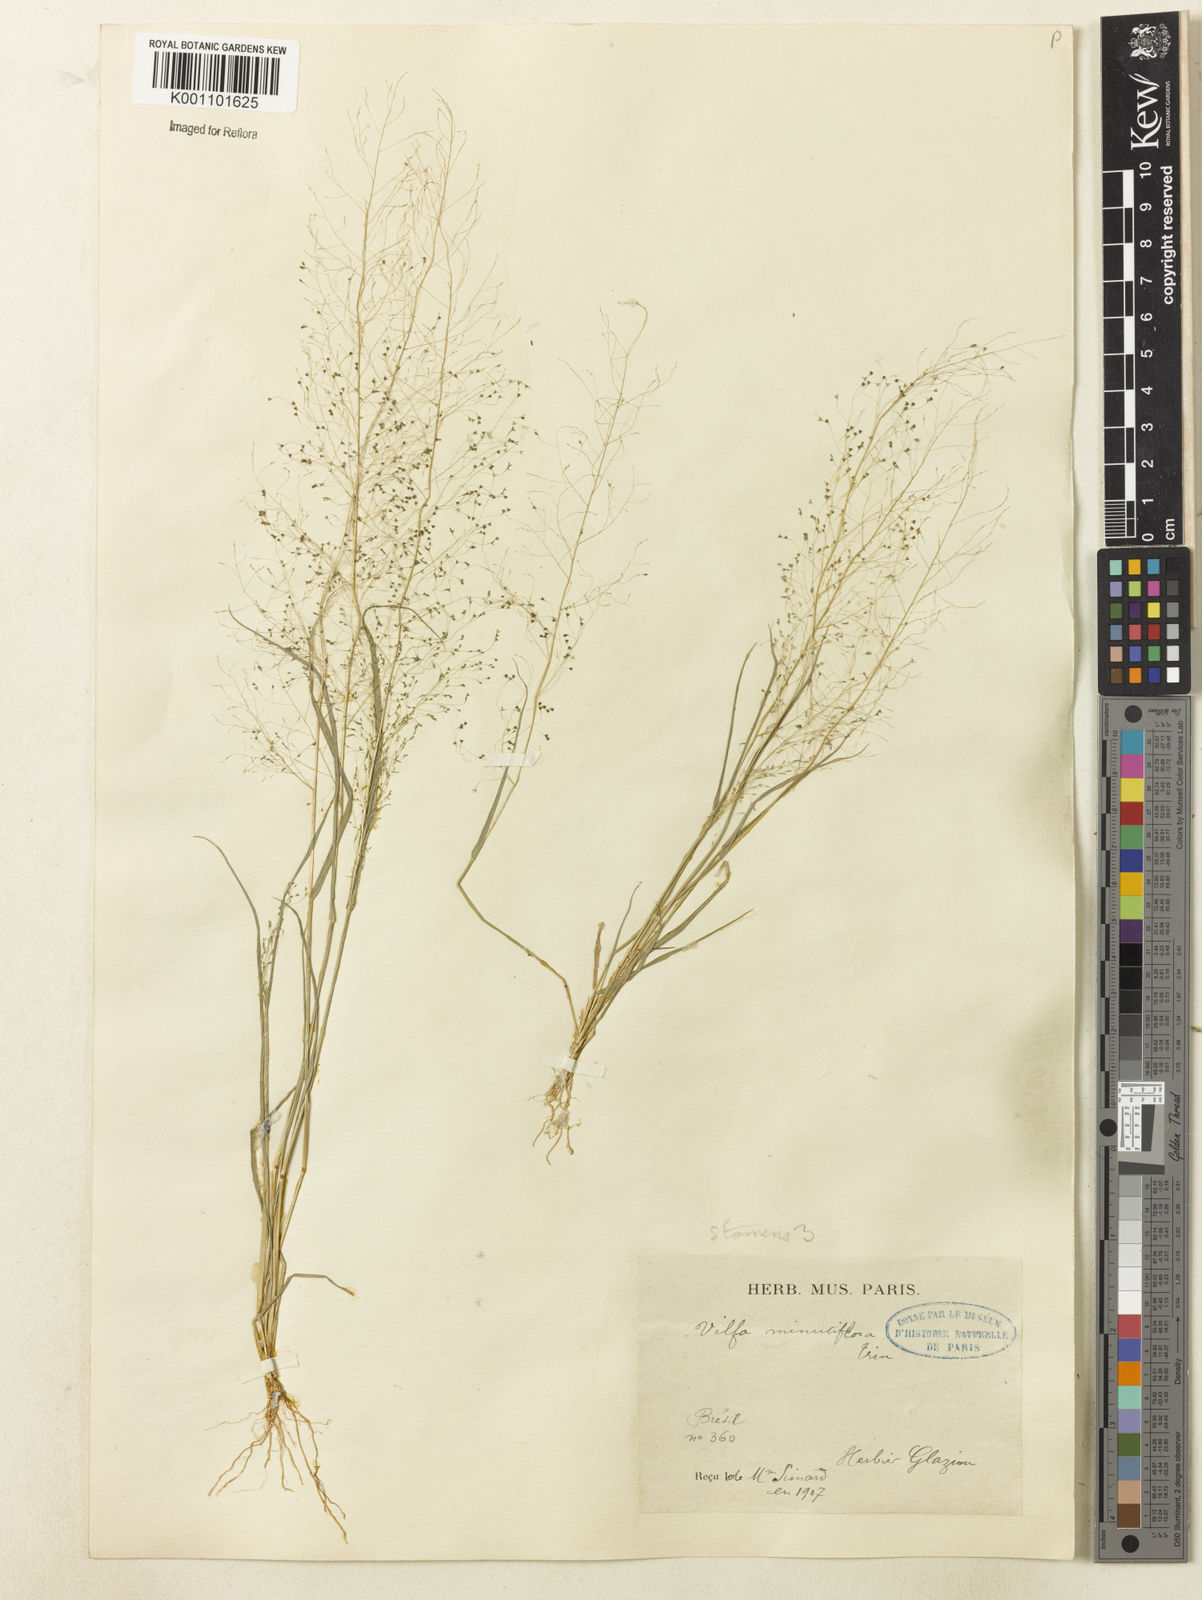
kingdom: Plantae
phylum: Tracheophyta
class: Liliopsida
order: Poales
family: Poaceae
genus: Sporobolus
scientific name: Sporobolus tenuissimus
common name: Tropical dropseed
